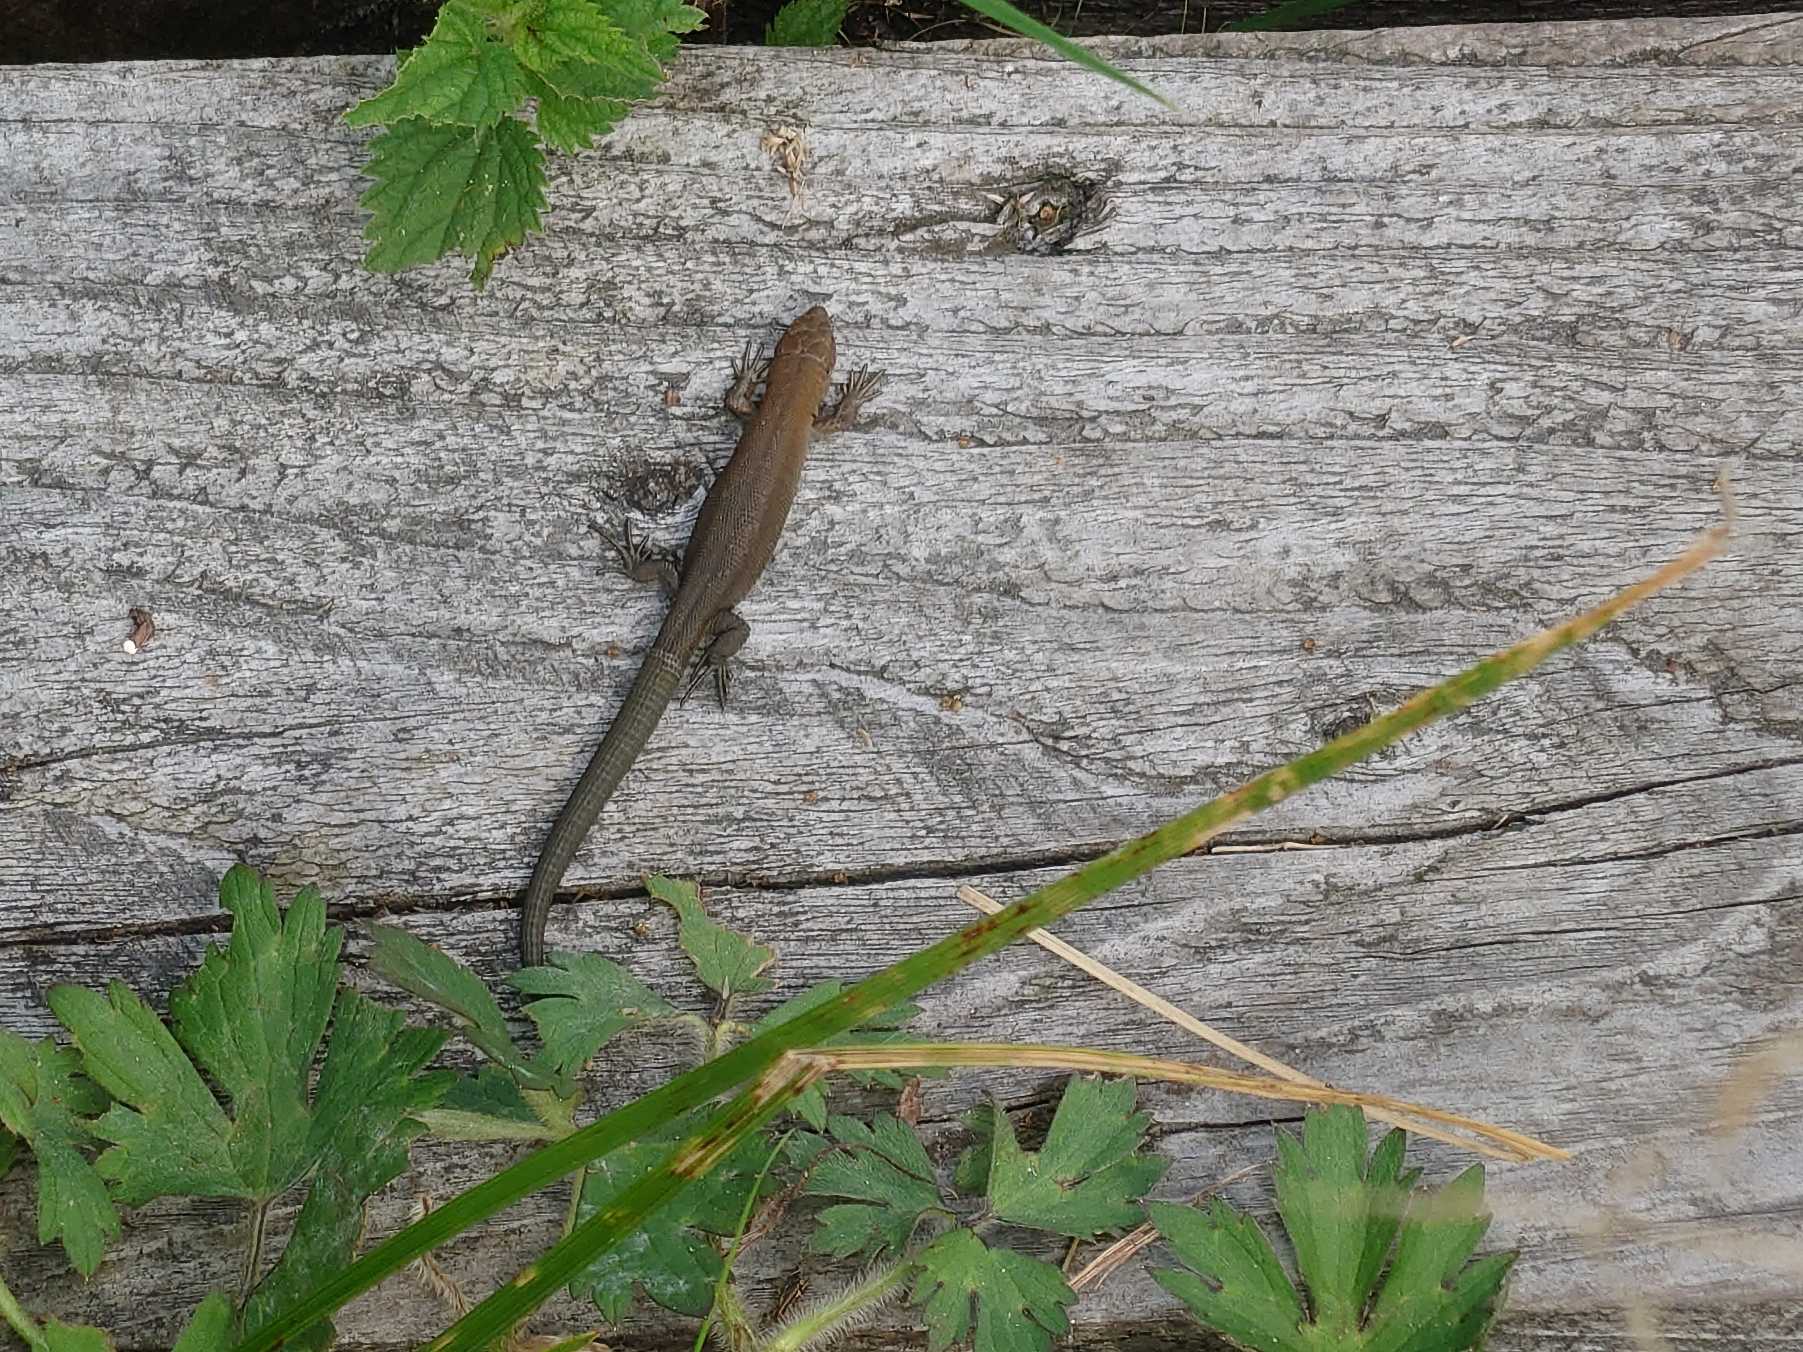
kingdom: Animalia
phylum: Chordata
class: Squamata
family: Lacertidae
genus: Zootoca
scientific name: Zootoca vivipara
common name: Skovfirben
